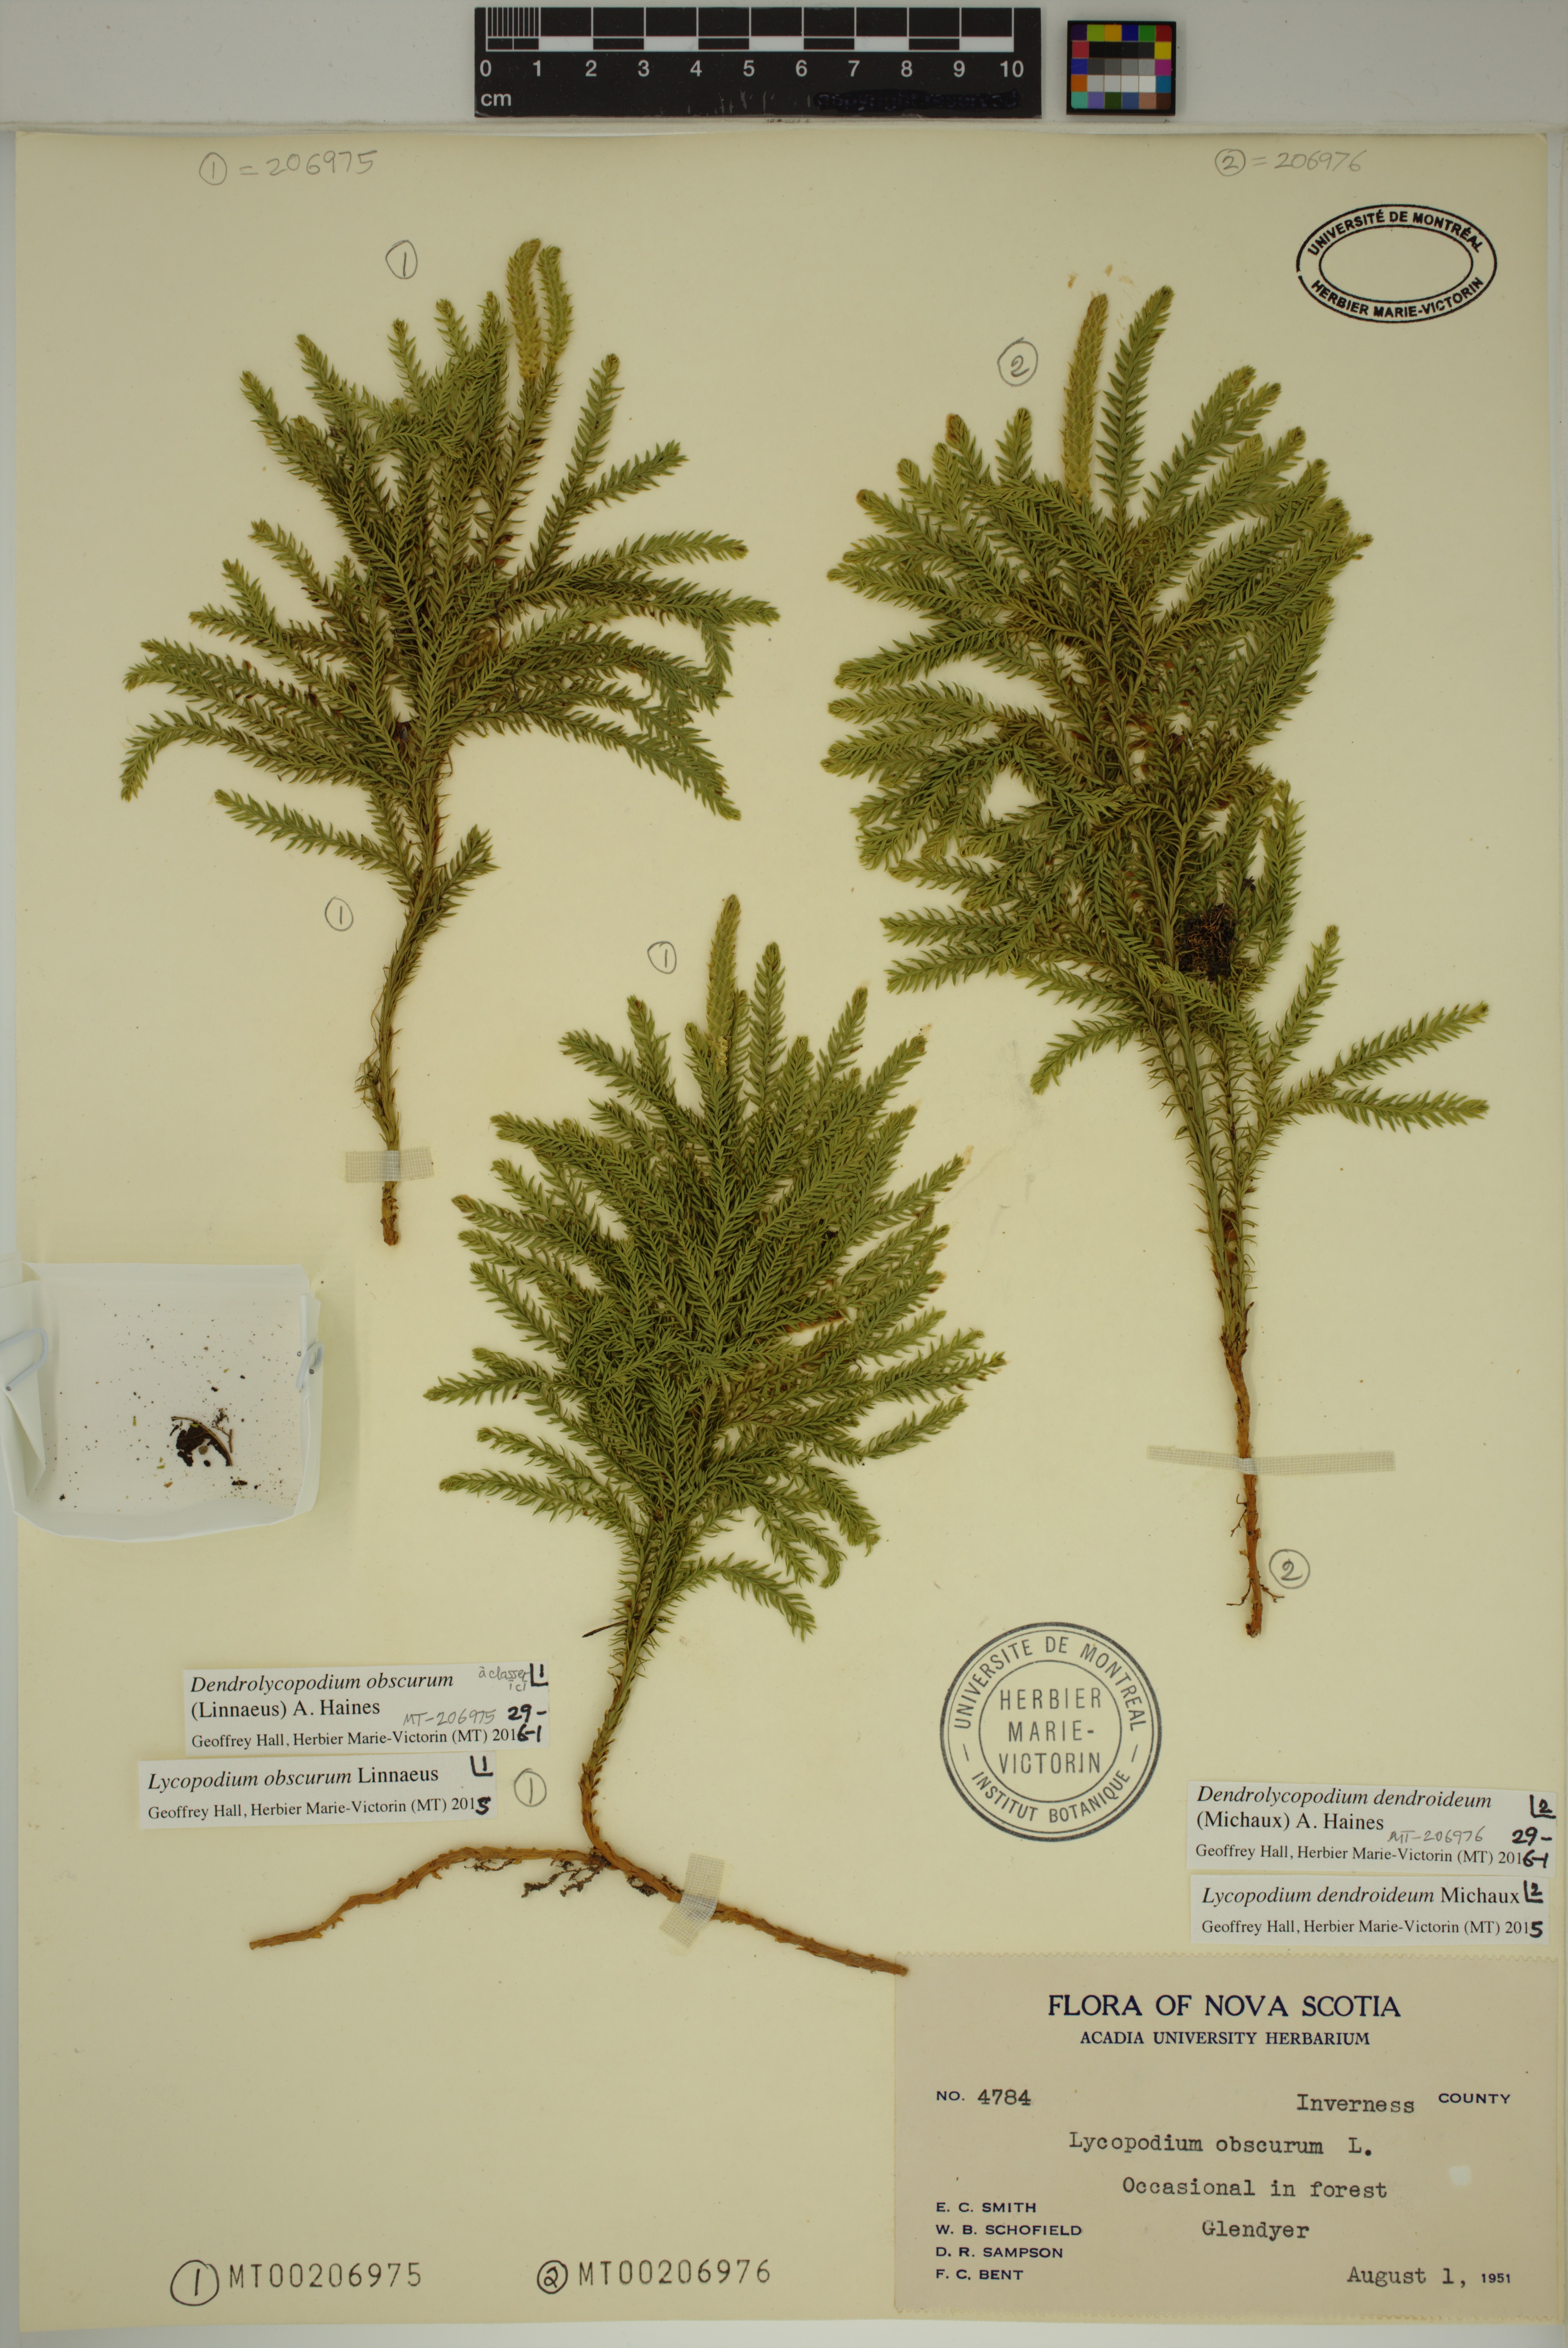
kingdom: Plantae
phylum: Tracheophyta
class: Lycopodiopsida
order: Lycopodiales
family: Lycopodiaceae
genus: Dendrolycopodium
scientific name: Dendrolycopodium obscurum
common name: Common ground-pine
